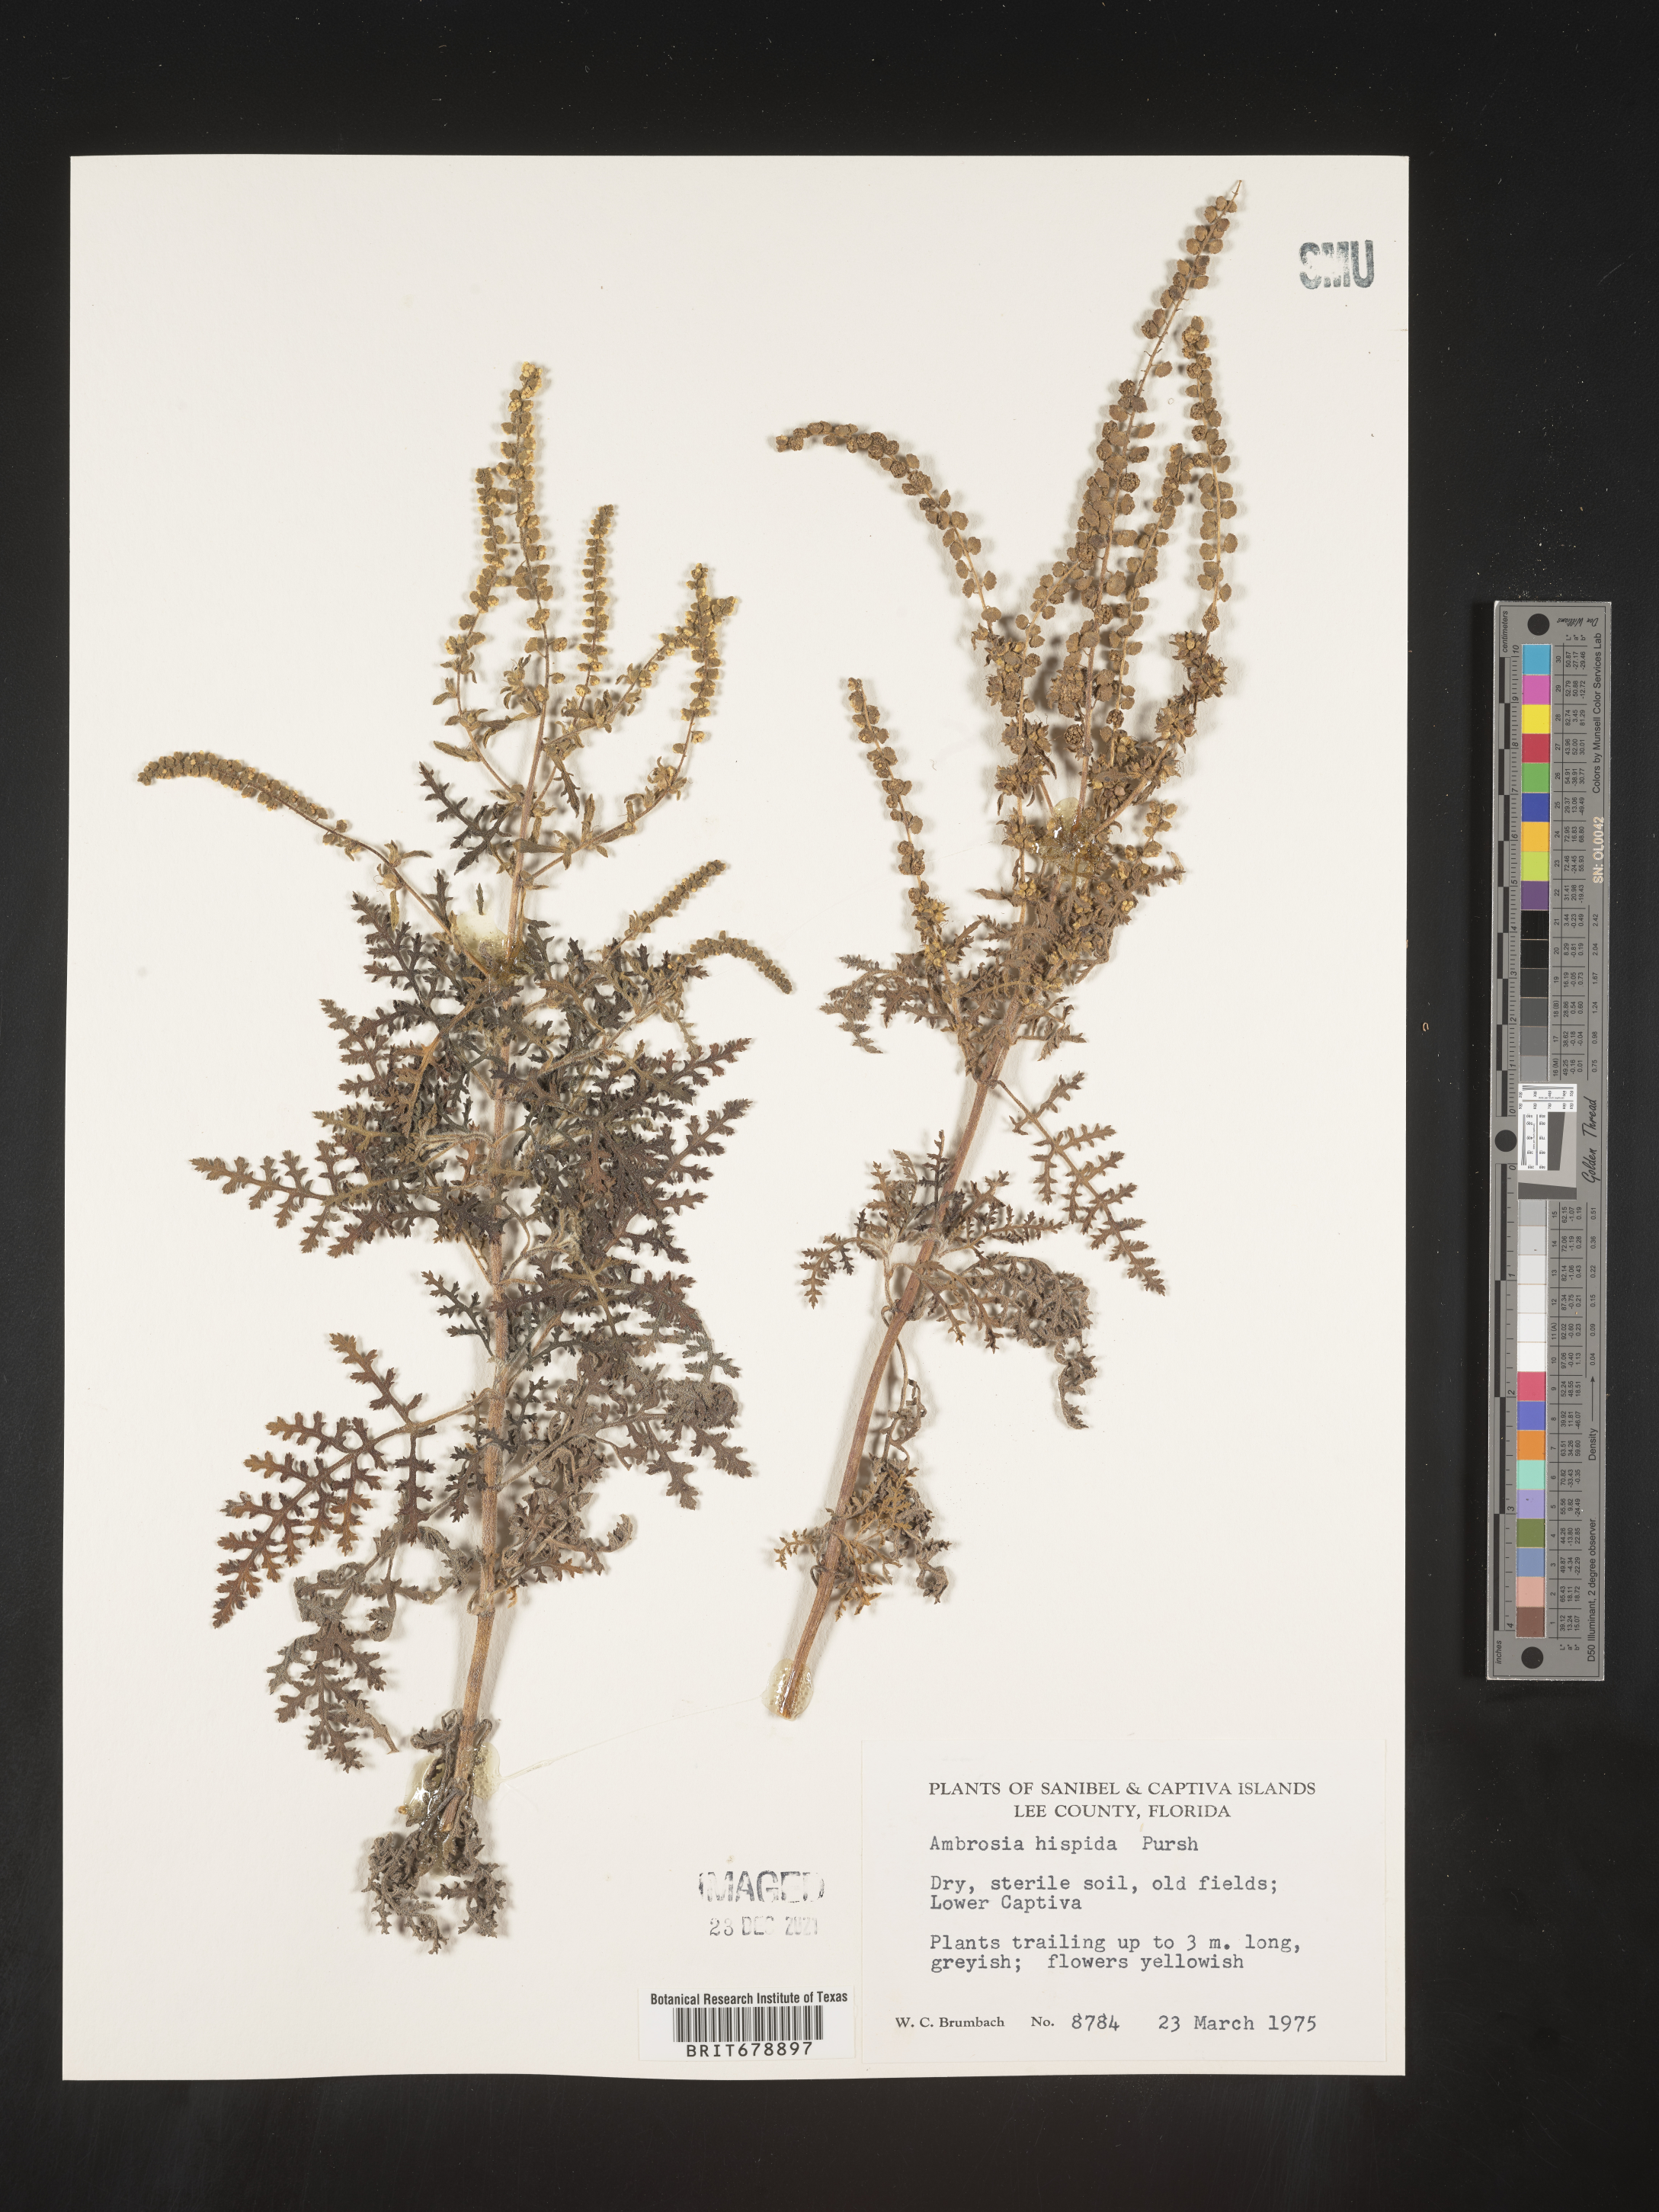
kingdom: Plantae
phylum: Tracheophyta
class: Magnoliopsida
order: Asterales
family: Asteraceae
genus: Ambrosia
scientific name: Ambrosia hispida
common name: Coastal ragweed
